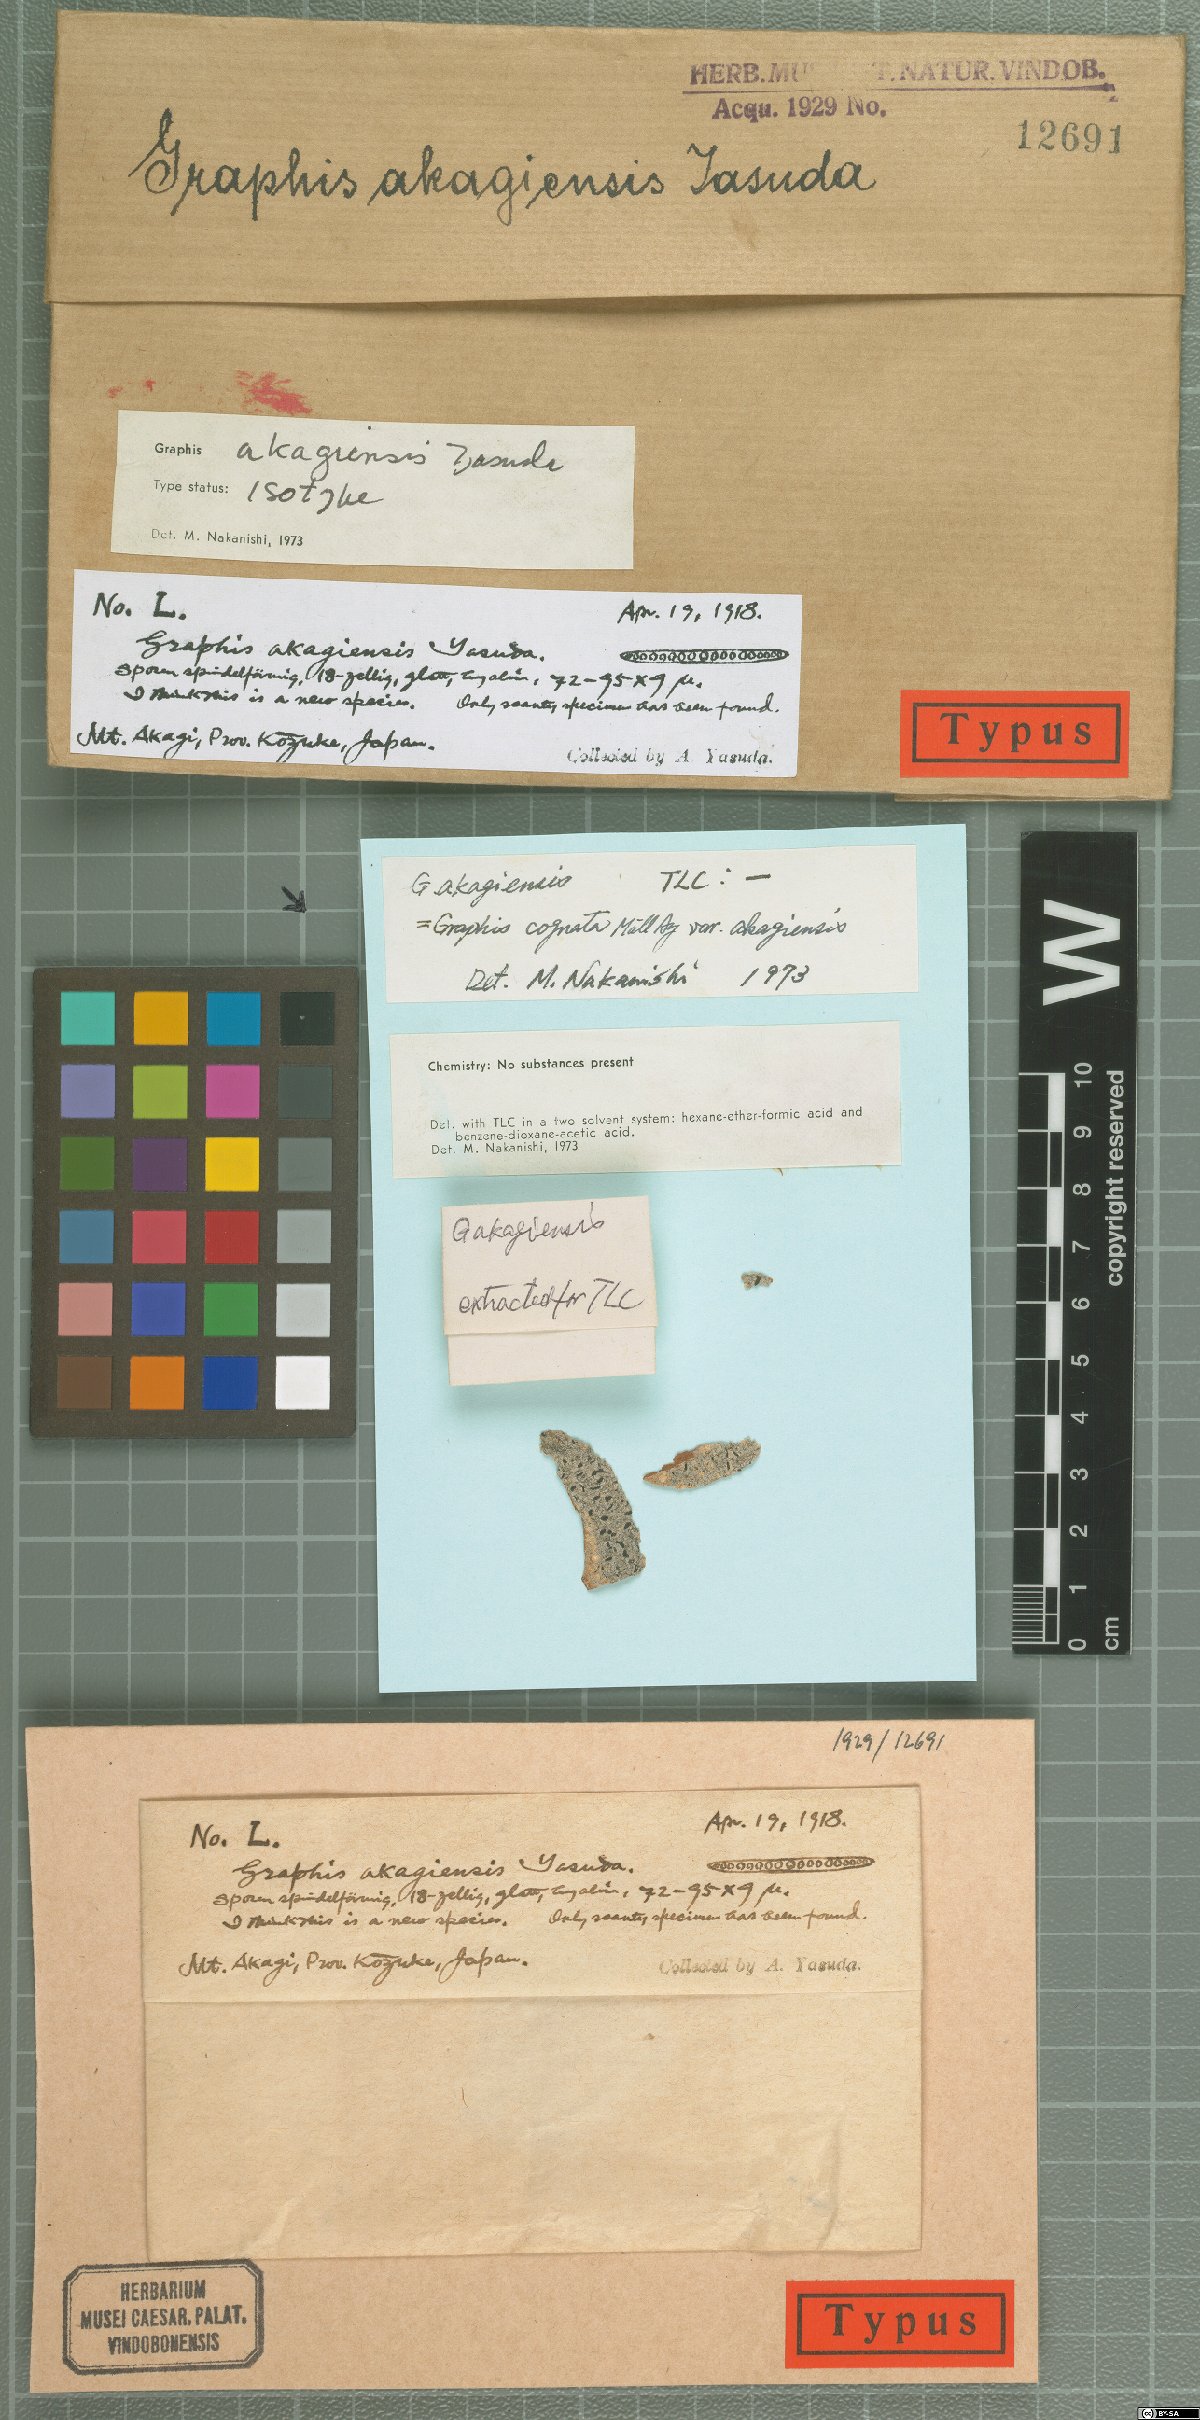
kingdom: Fungi
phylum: Ascomycota
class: Lecanoromycetes
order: Ostropales
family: Graphidaceae
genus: Graphis
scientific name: Graphis
